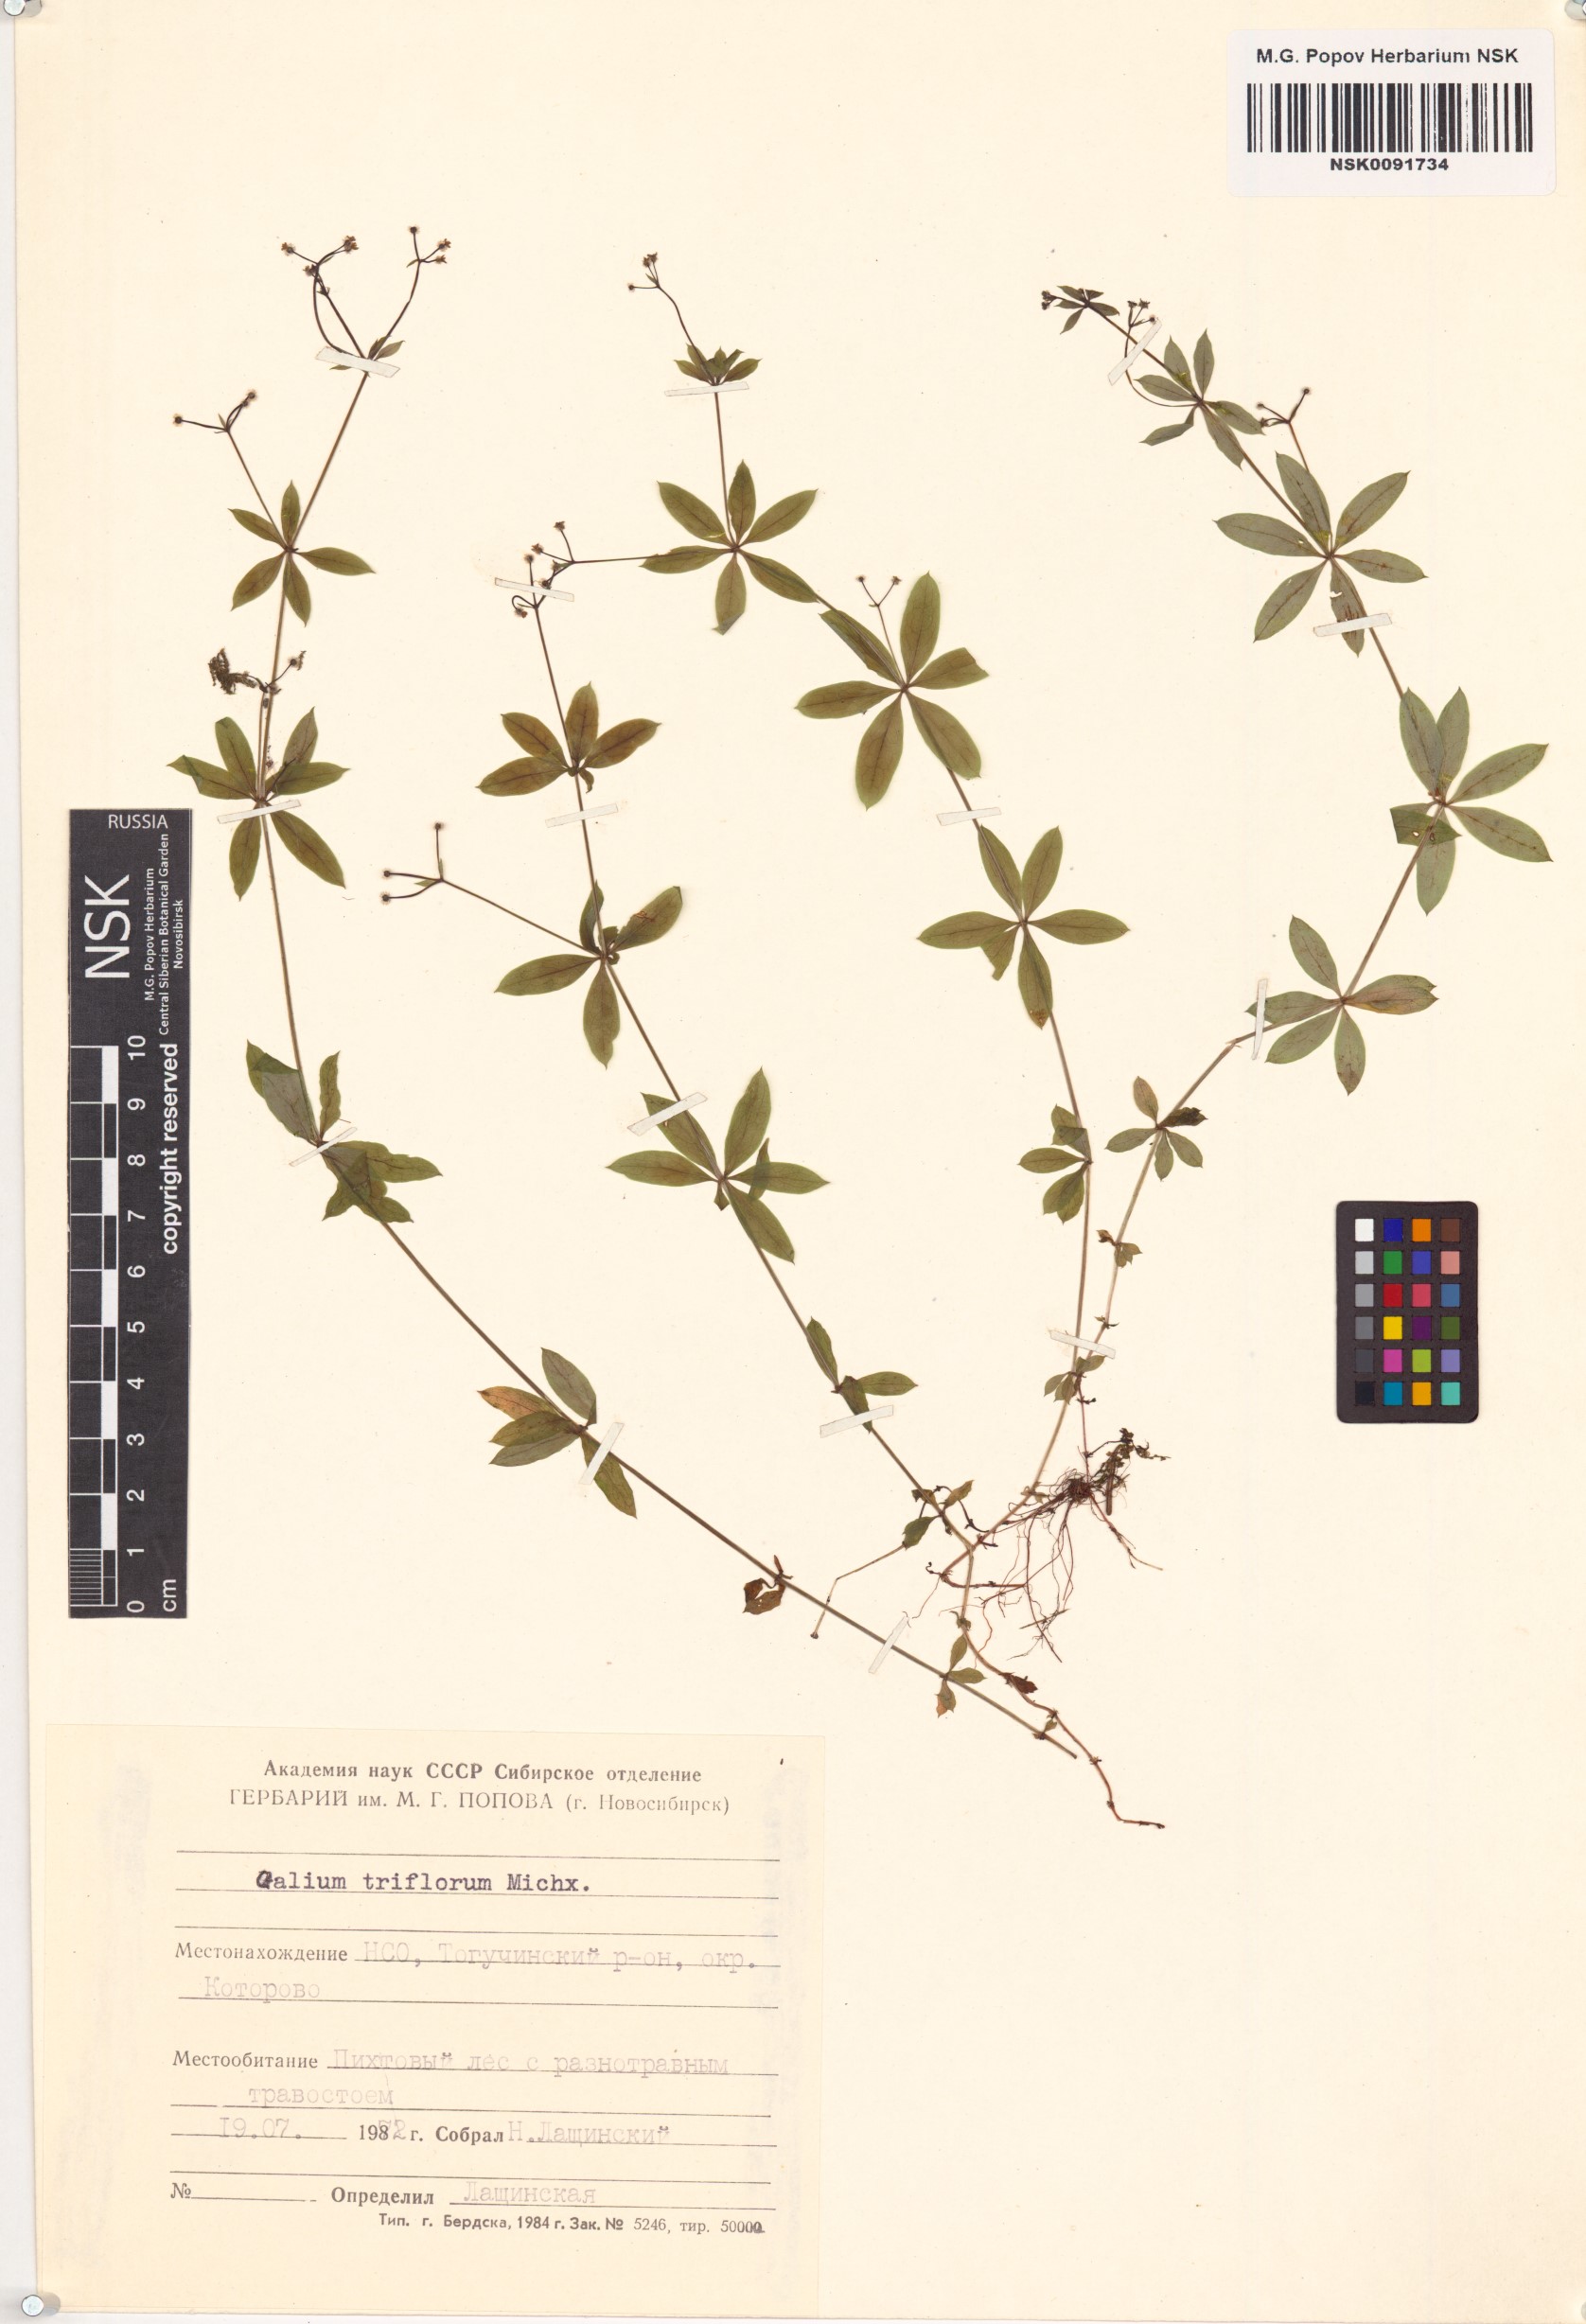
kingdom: Plantae
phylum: Tracheophyta
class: Magnoliopsida
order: Gentianales
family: Rubiaceae
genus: Galium
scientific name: Galium triflorum
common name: Fragrant bedstraw
